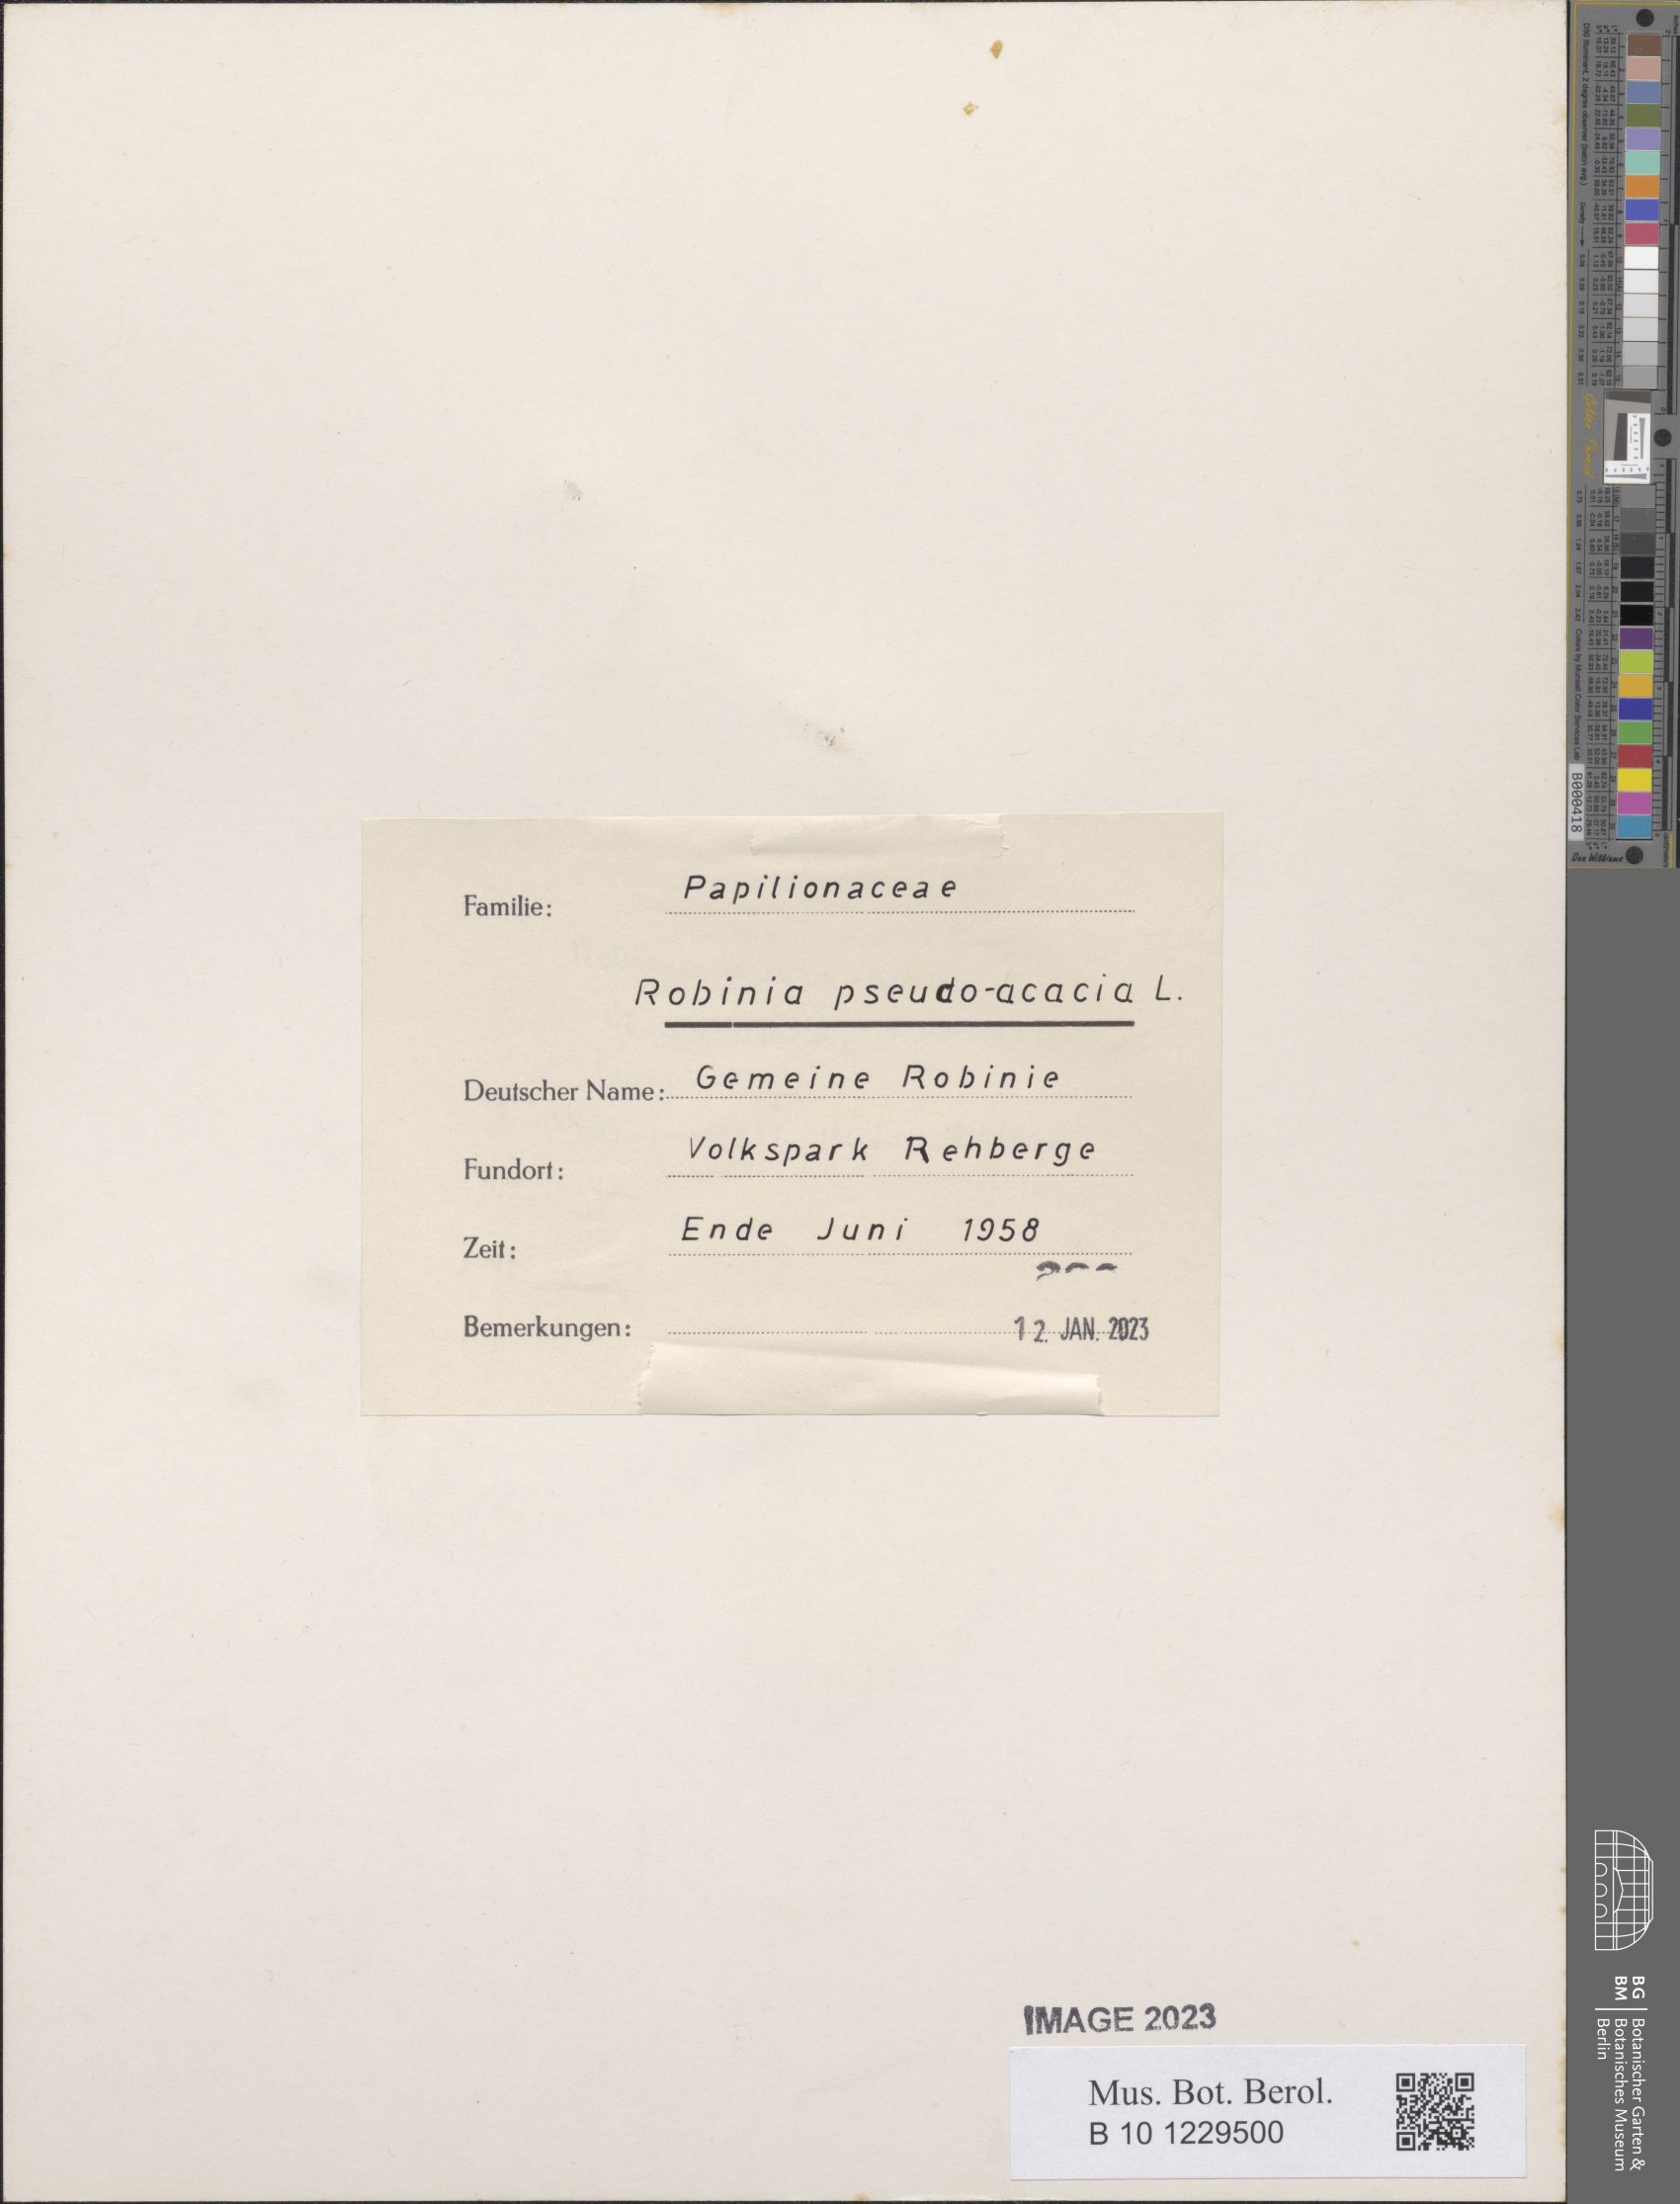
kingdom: Plantae
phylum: Tracheophyta
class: Magnoliopsida
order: Fabales
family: Fabaceae
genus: Robinia
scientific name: Robinia pseudoacacia
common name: Black locust
